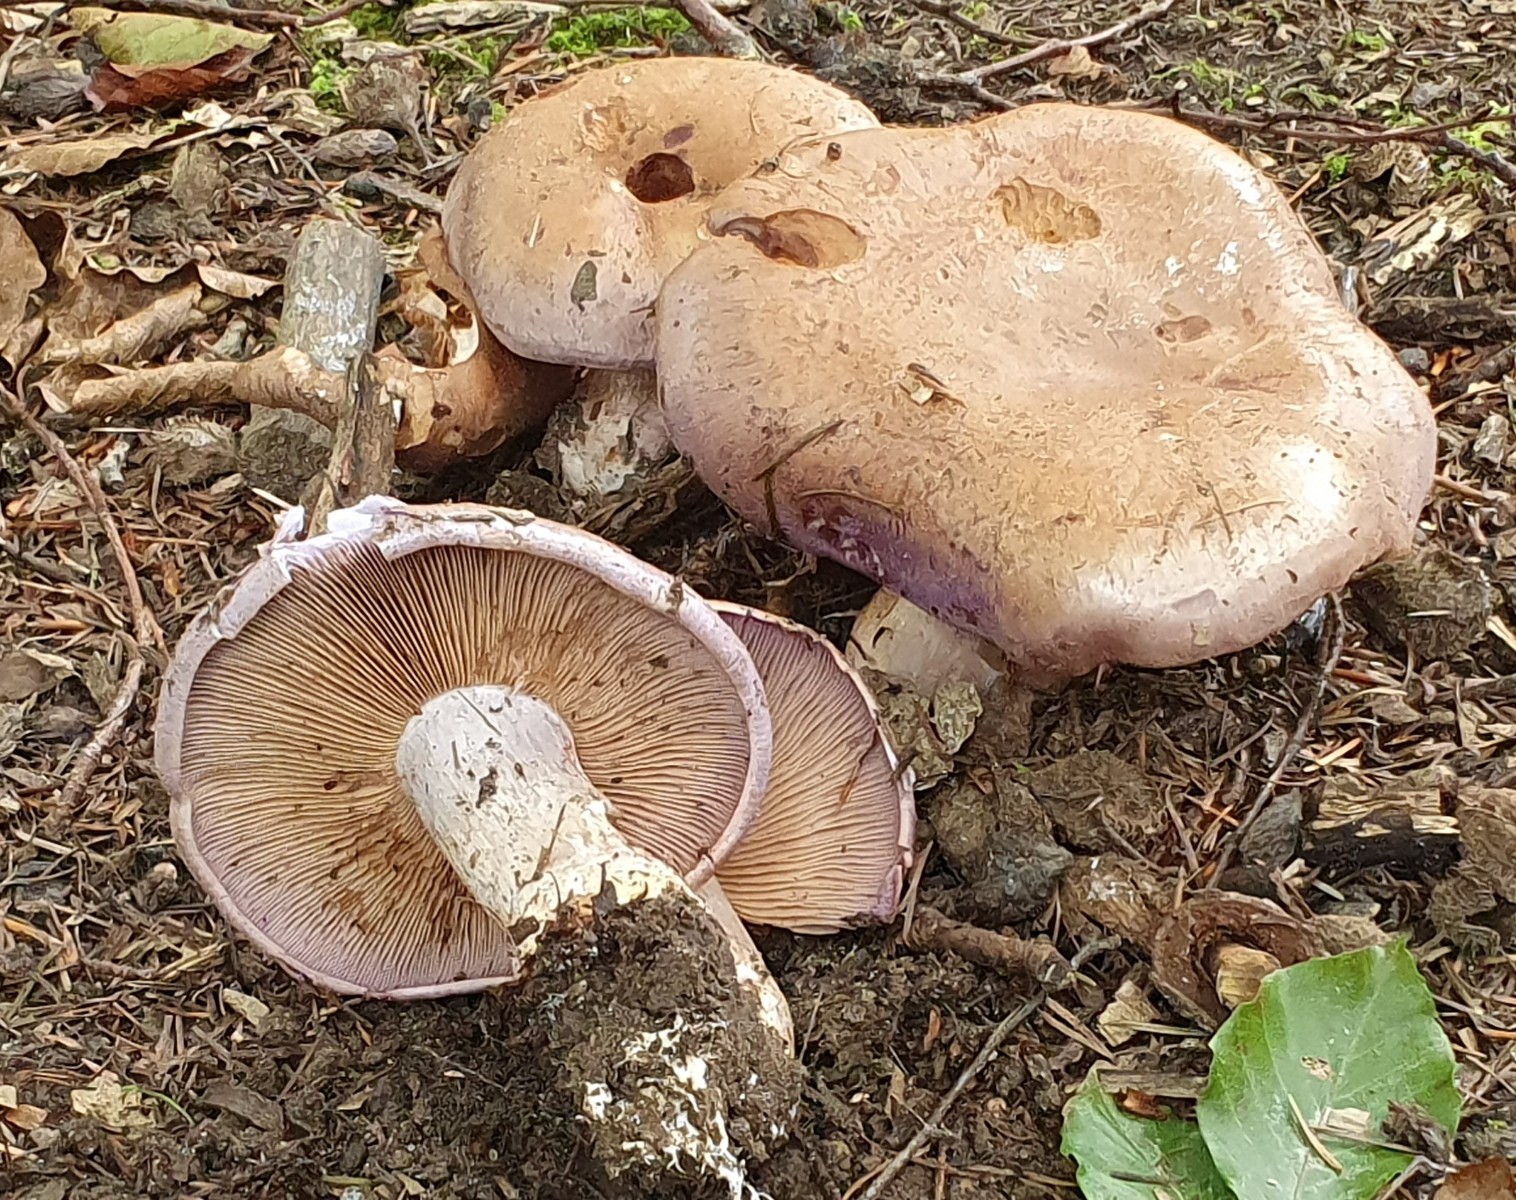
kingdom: Fungi
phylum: Basidiomycota
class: Agaricomycetes
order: Agaricales
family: Cortinariaceae
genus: Cortinarius
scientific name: Cortinarius largus
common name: violetrandet slørhat
